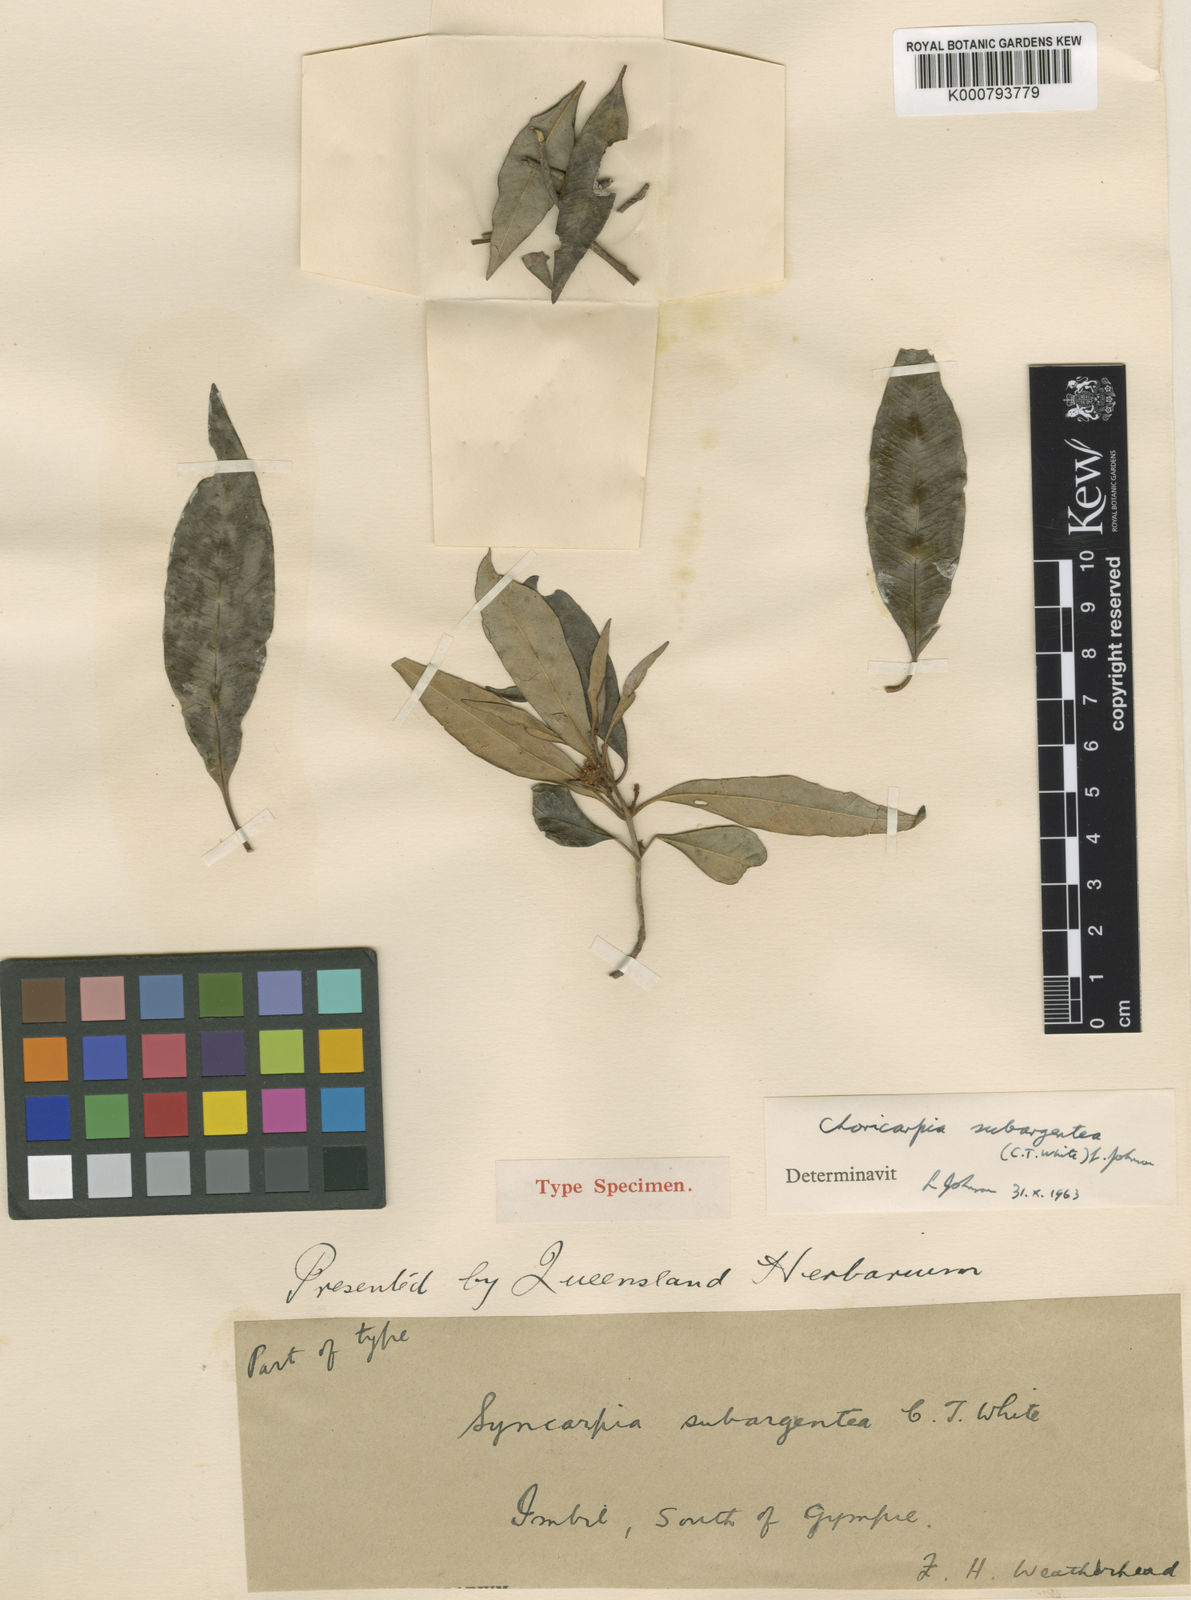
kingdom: Plantae
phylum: Tracheophyta
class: Magnoliopsida
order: Myrtales
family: Myrtaceae
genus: Backhousia
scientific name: Backhousia subargentea
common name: Giant ironwood
